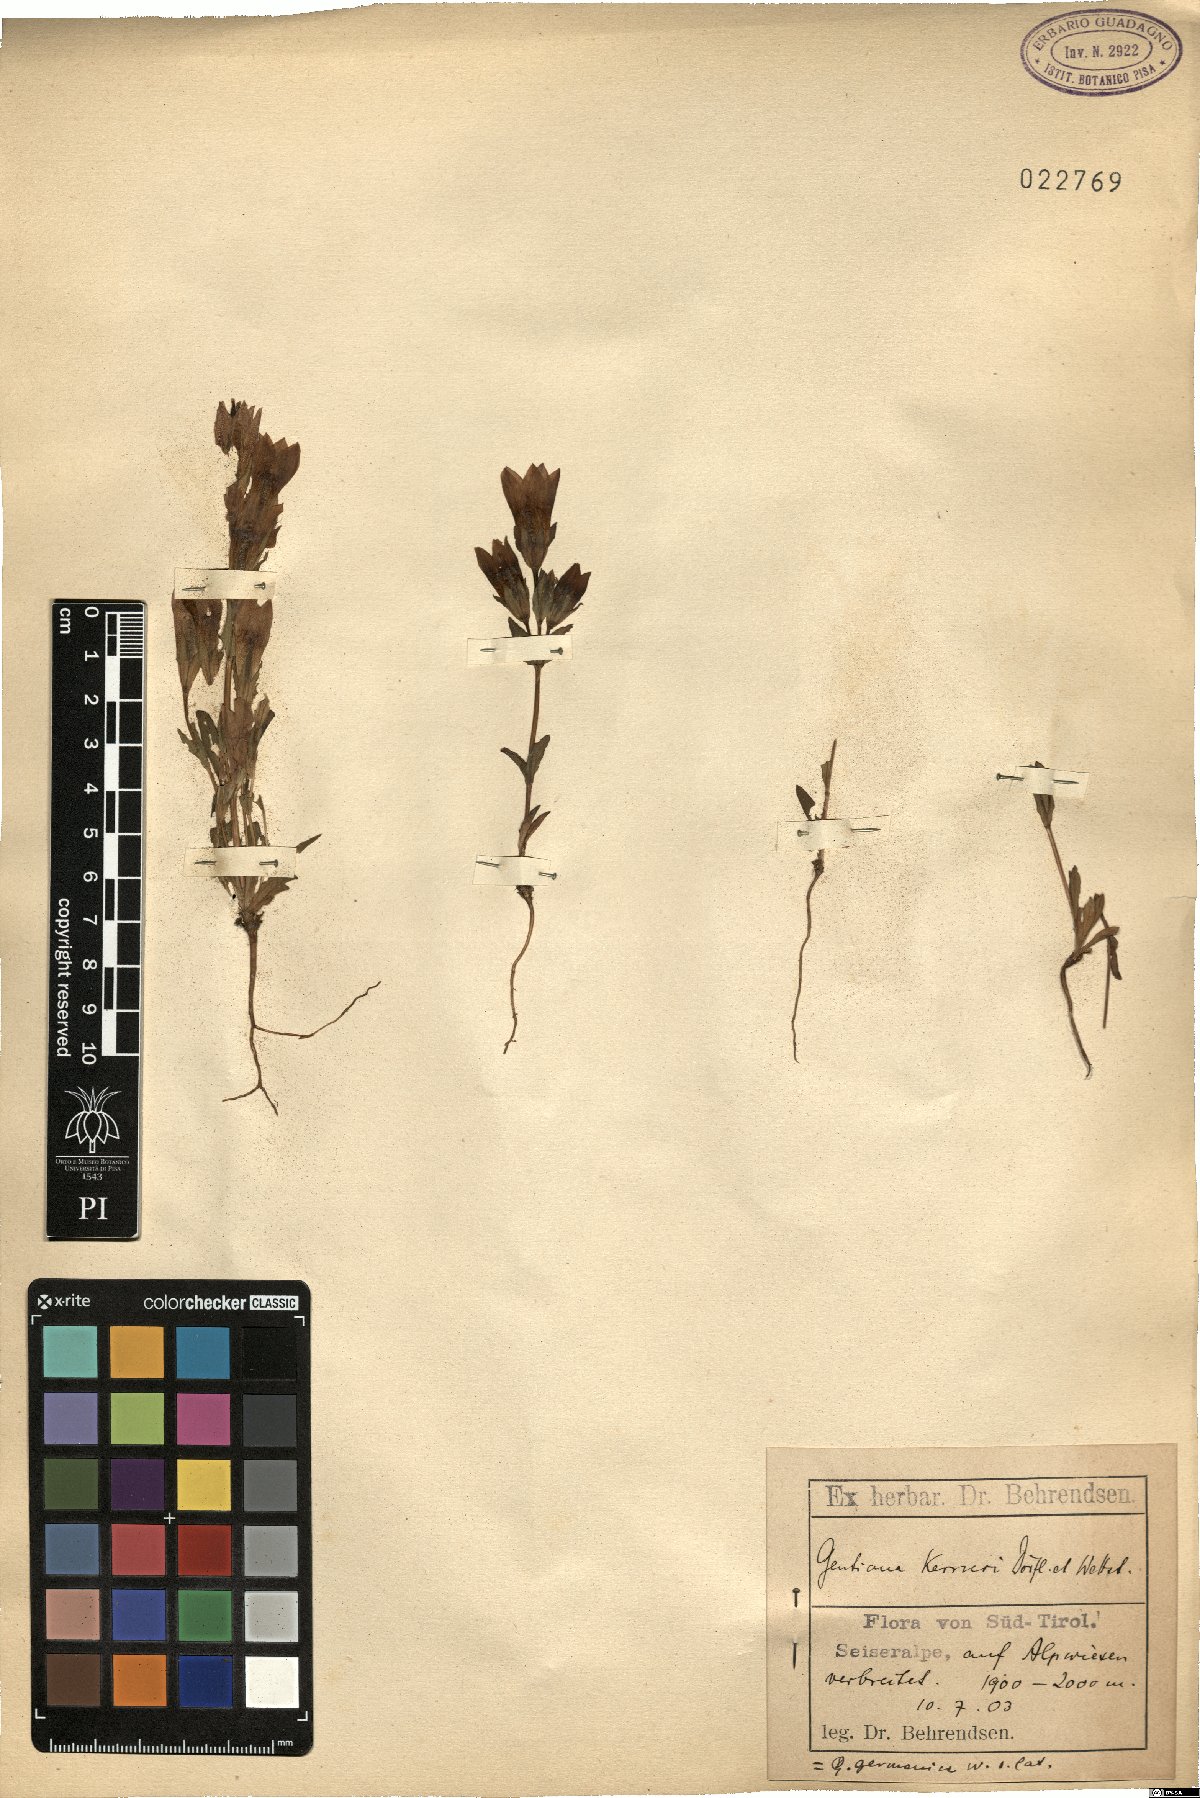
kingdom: Plantae
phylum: Tracheophyta
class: Magnoliopsida
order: Gentianales
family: Gentianaceae
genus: Gentianella
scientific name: Gentianella rhaetica
